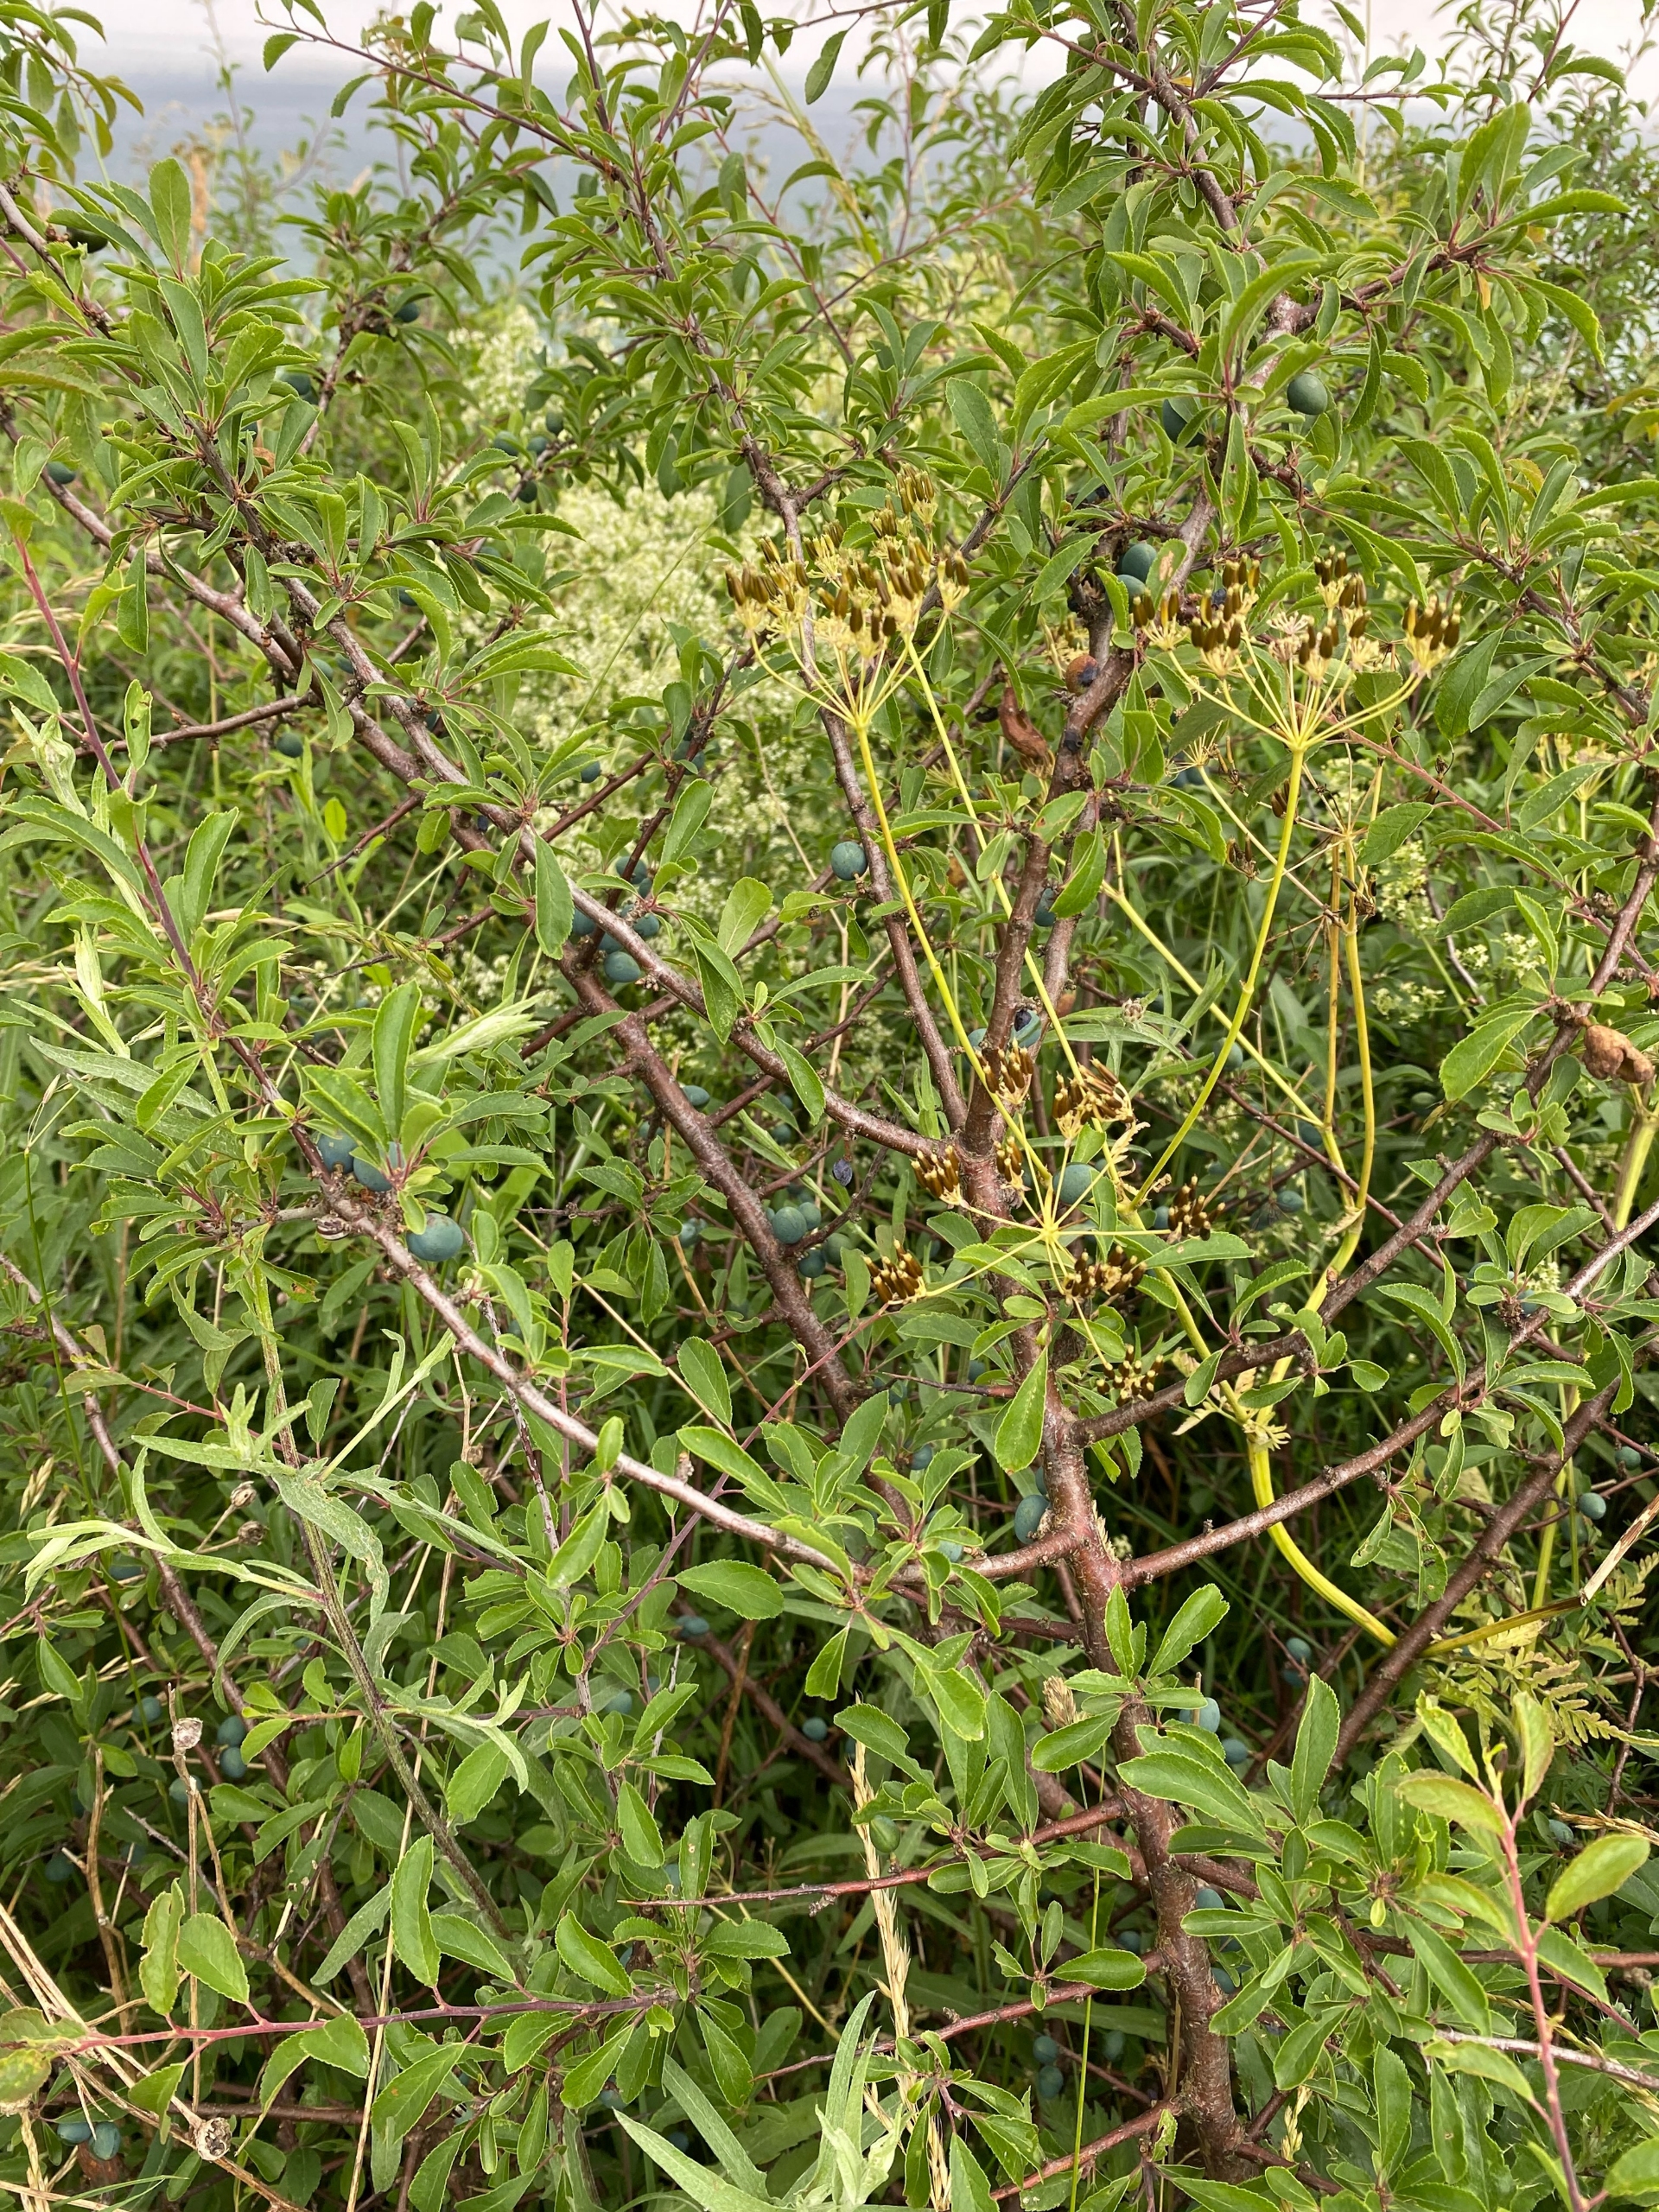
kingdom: Plantae
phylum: Tracheophyta
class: Magnoliopsida
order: Rosales
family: Rosaceae
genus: Prunus
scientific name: Prunus spinosa
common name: Slåen
